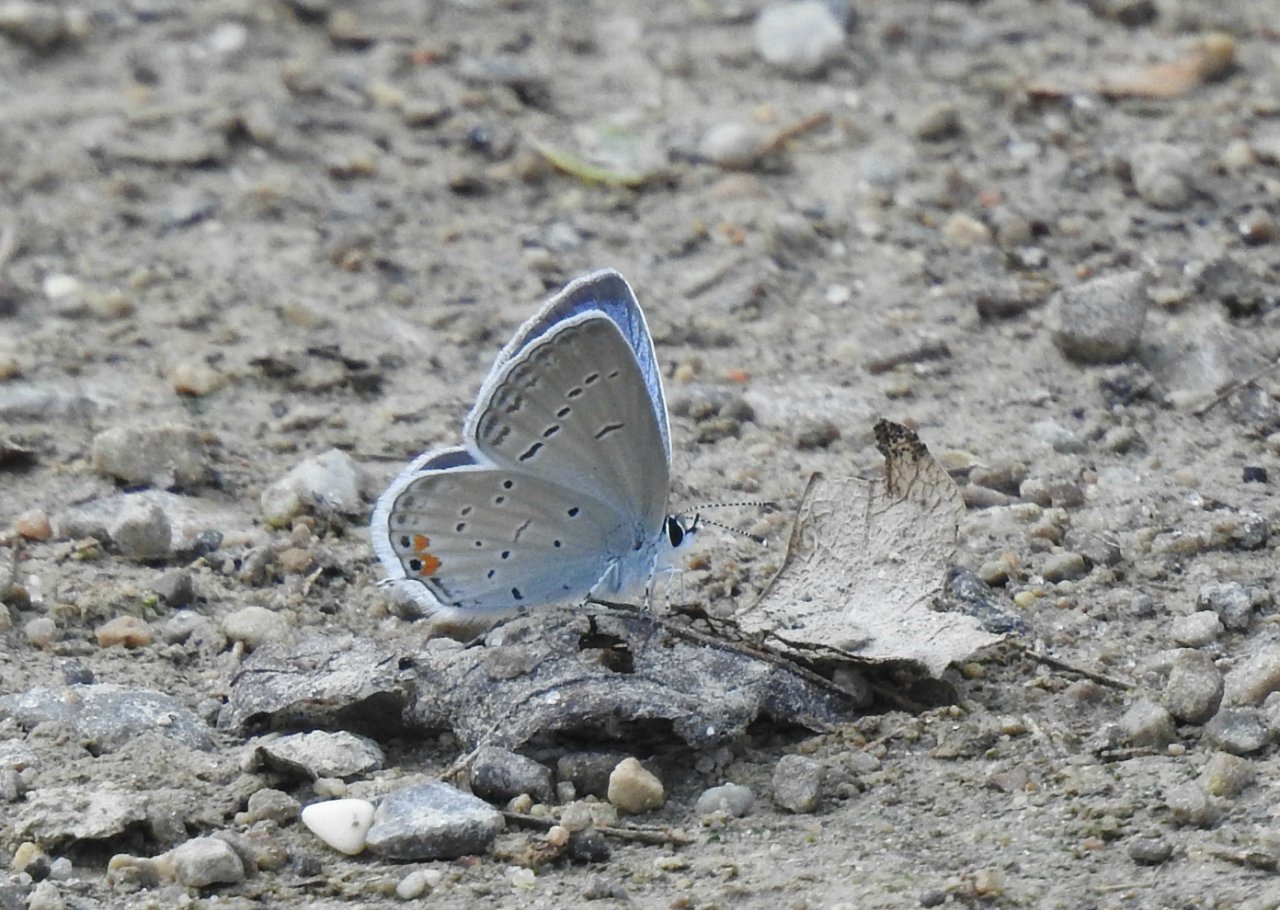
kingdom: Animalia
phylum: Arthropoda
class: Insecta
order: Lepidoptera
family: Lycaenidae
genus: Elkalyce
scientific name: Elkalyce comyntas
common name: Eastern Tailed-Blue
